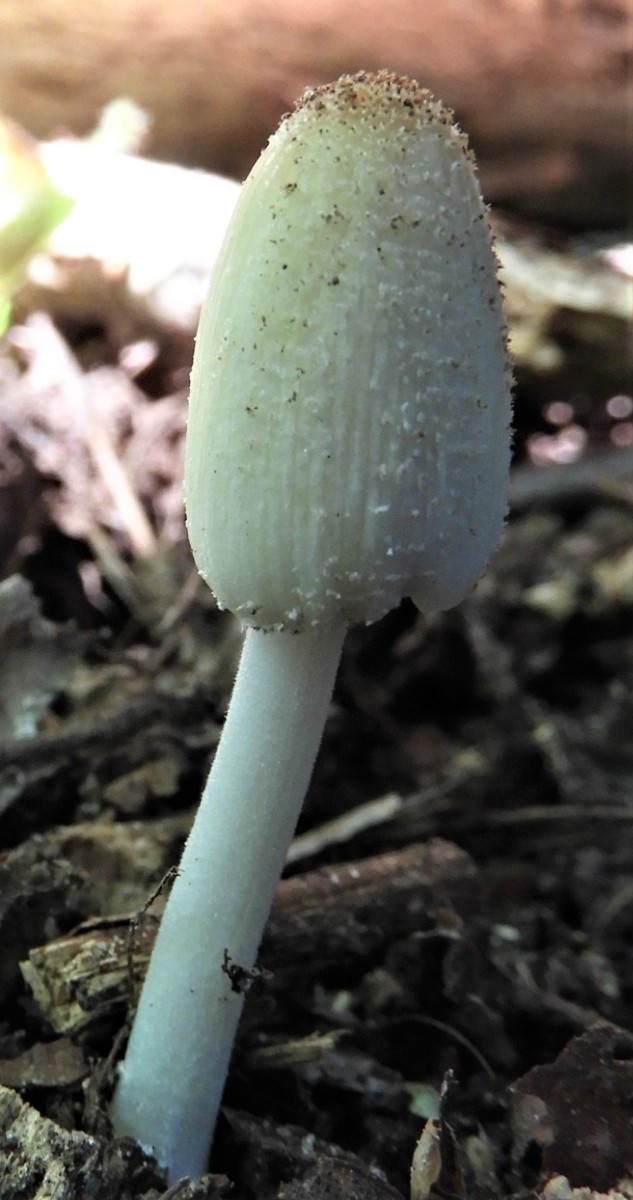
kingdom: Fungi
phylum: Basidiomycota
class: Agaricomycetes
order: Agaricales
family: Psathyrellaceae
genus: Coprinellus
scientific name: Coprinellus
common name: blækhat
